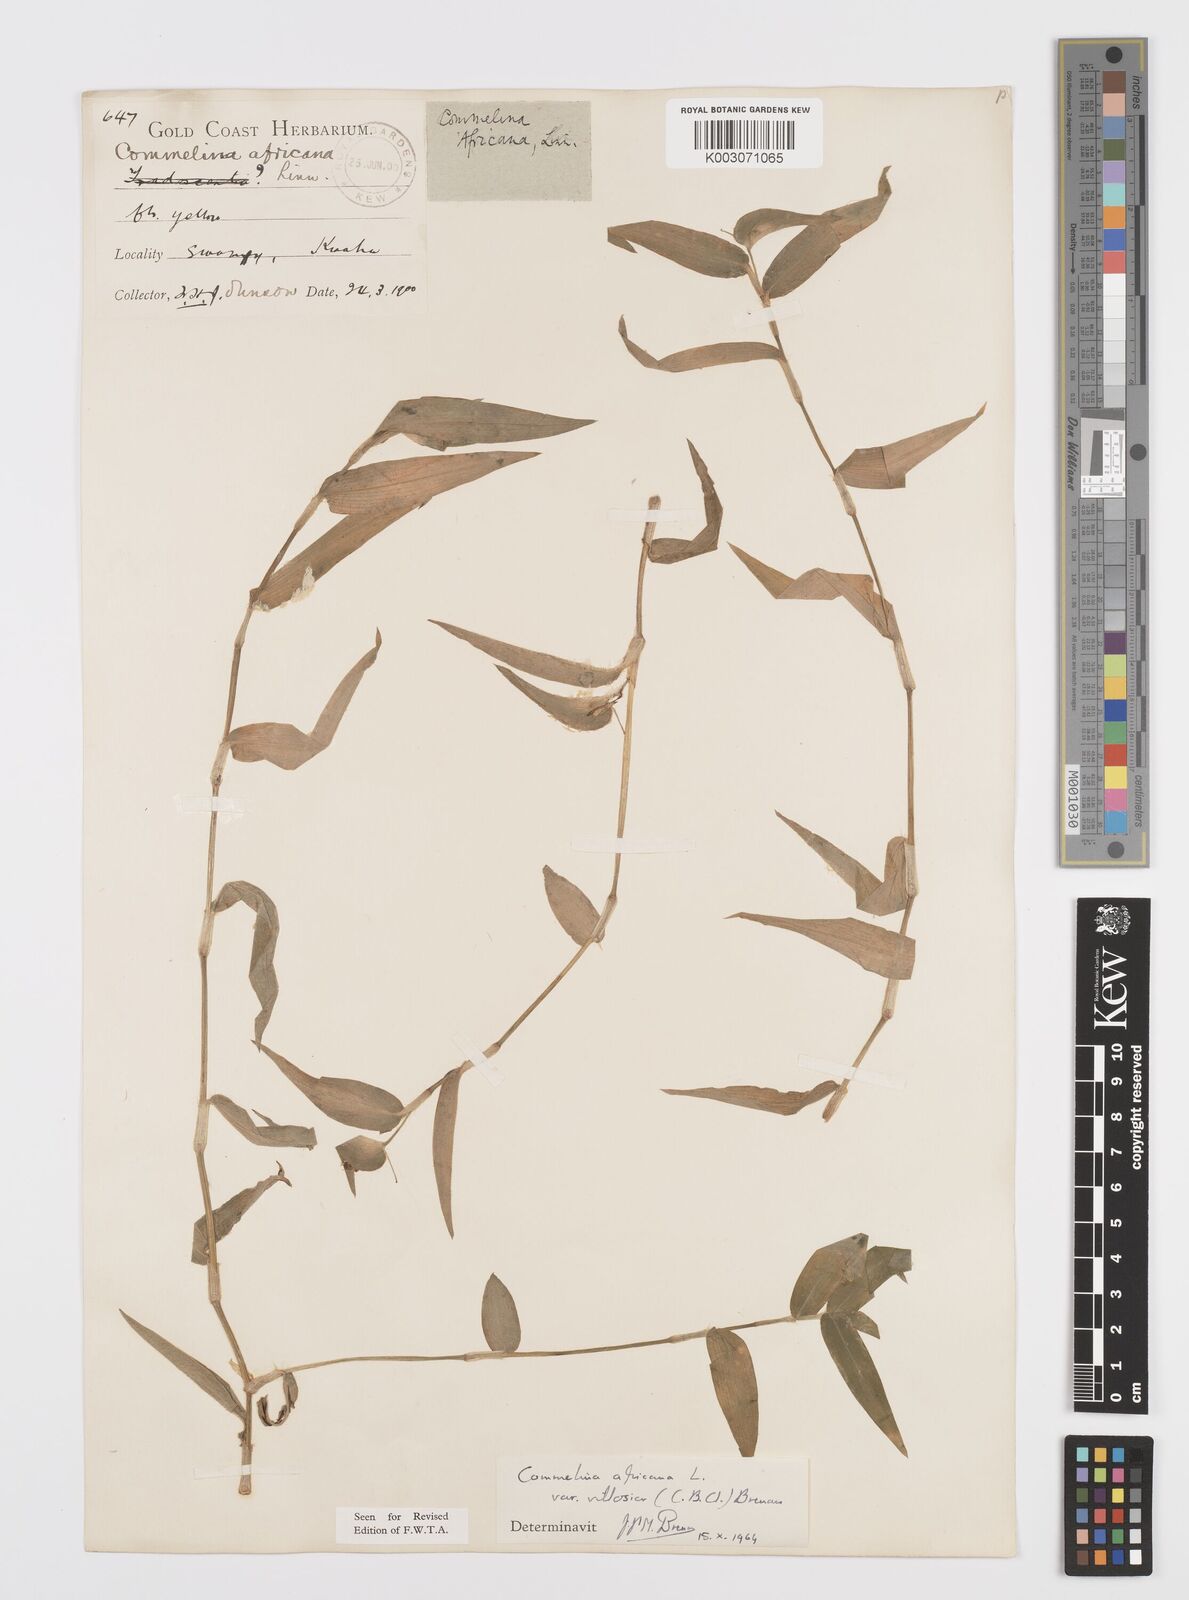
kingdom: Plantae
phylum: Tracheophyta
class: Liliopsida
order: Commelinales
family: Commelinaceae
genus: Commelina
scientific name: Commelina africana
